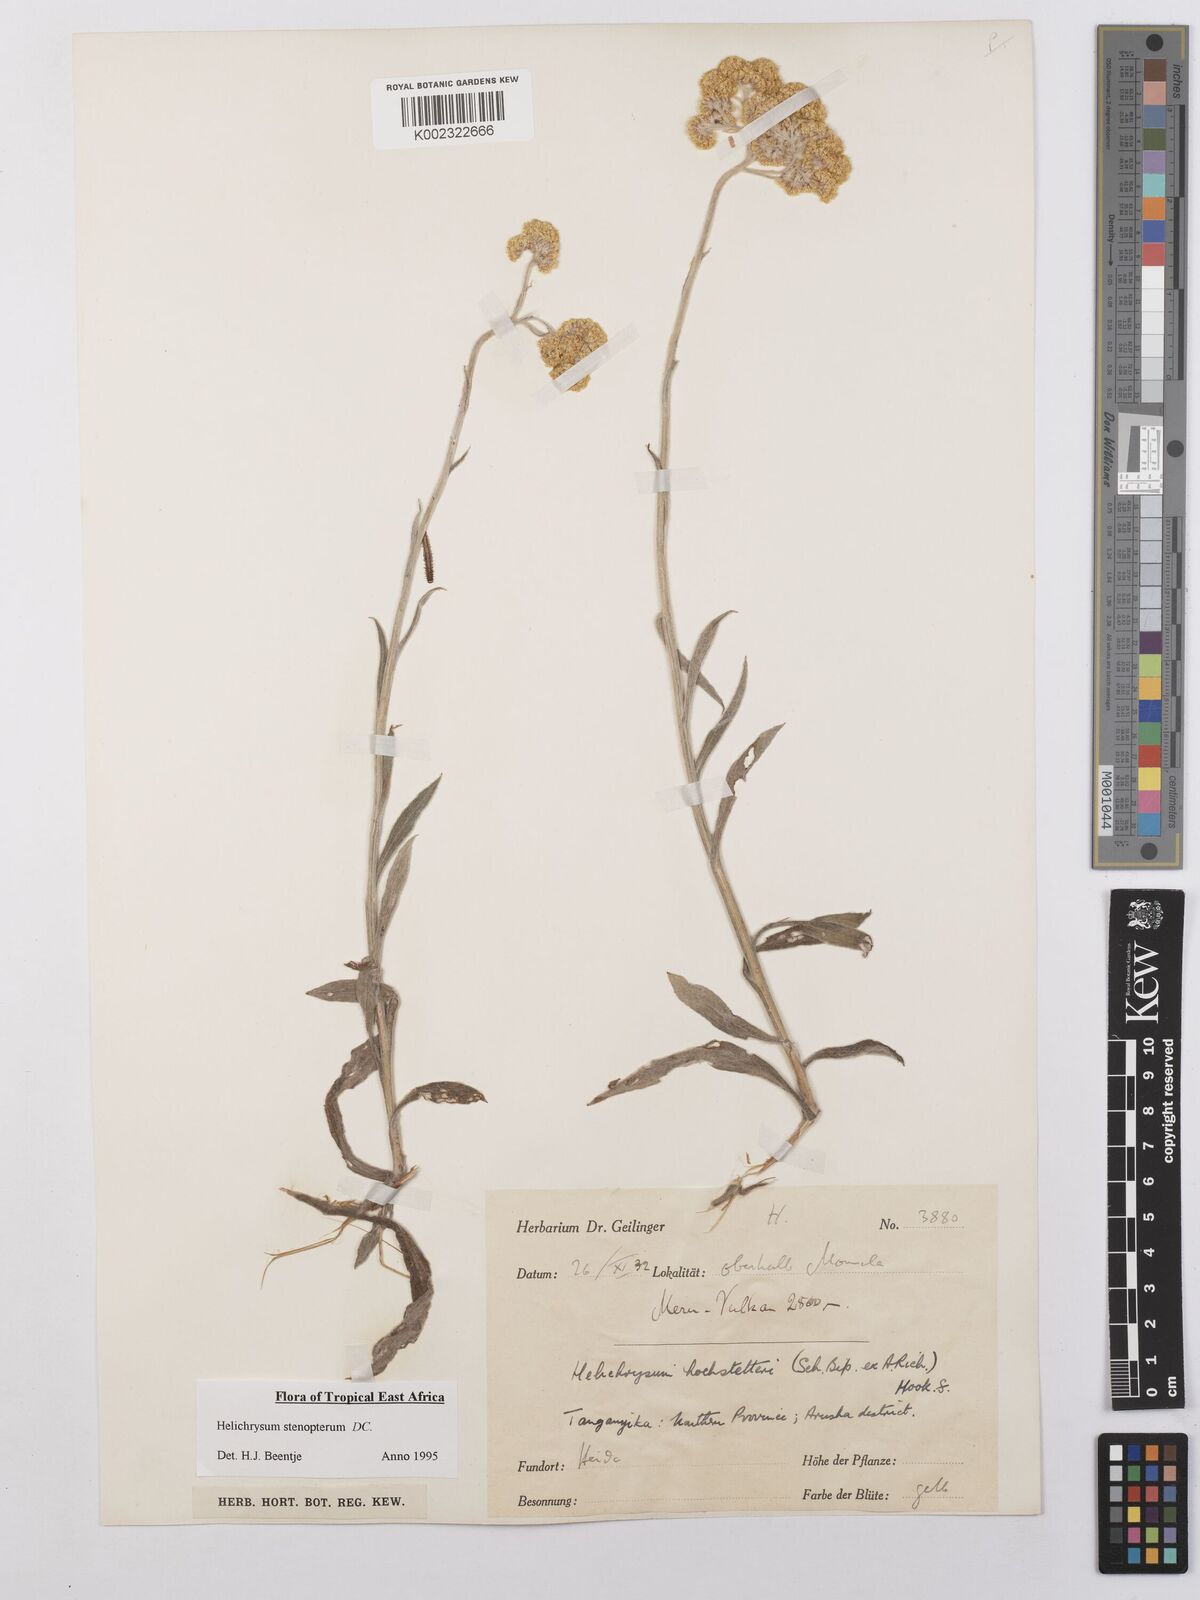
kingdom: Plantae
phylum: Tracheophyta
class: Magnoliopsida
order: Asterales
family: Asteraceae
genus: Helichrysum
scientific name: Helichrysum stenopterum
